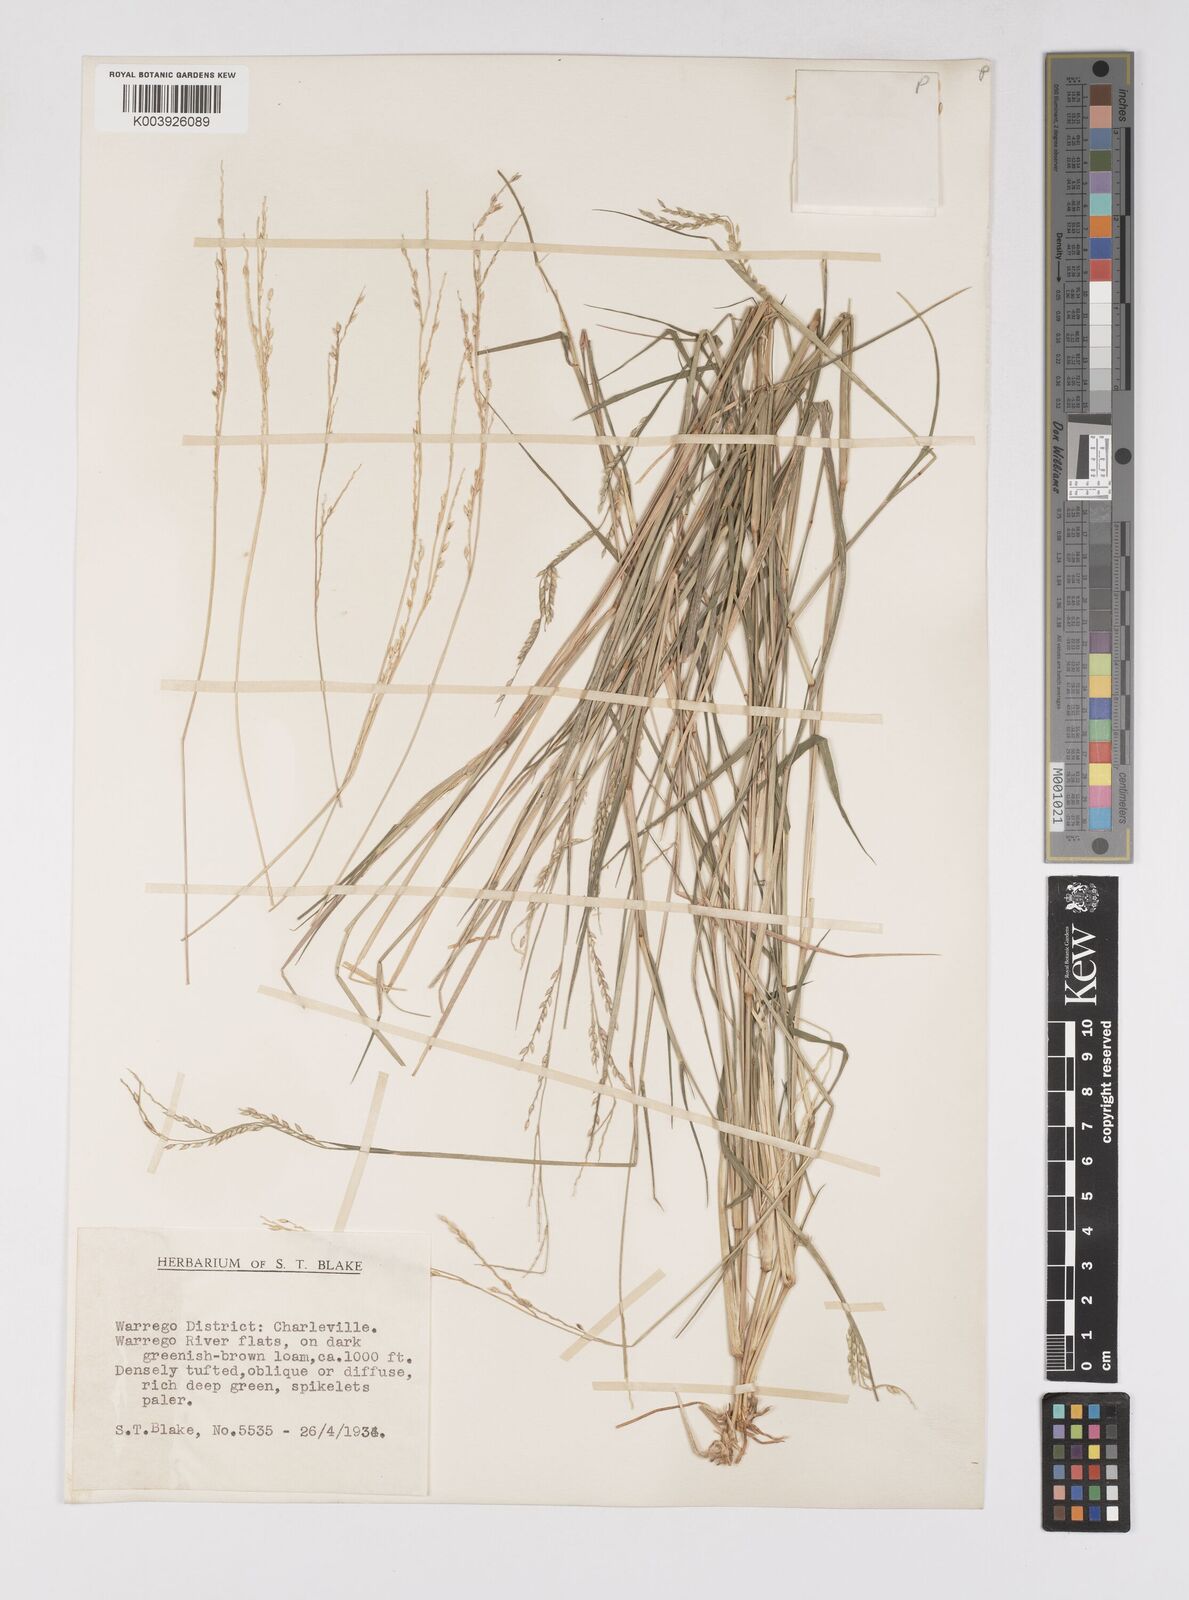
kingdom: Plantae
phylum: Tracheophyta
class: Liliopsida
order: Poales
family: Poaceae
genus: Eriochloa
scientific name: Eriochloa
